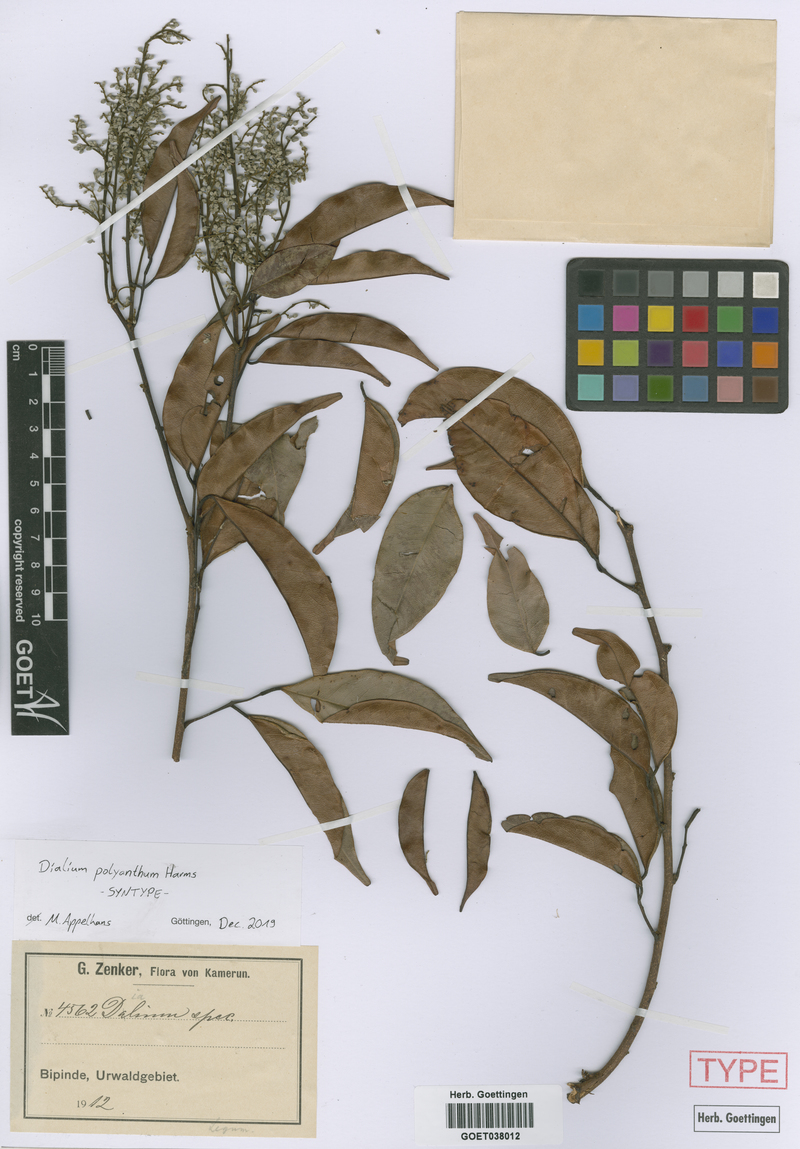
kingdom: Plantae
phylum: Tracheophyta
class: Magnoliopsida
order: Fabales
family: Fabaceae
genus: Dialium
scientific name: Dialium polyanthum
